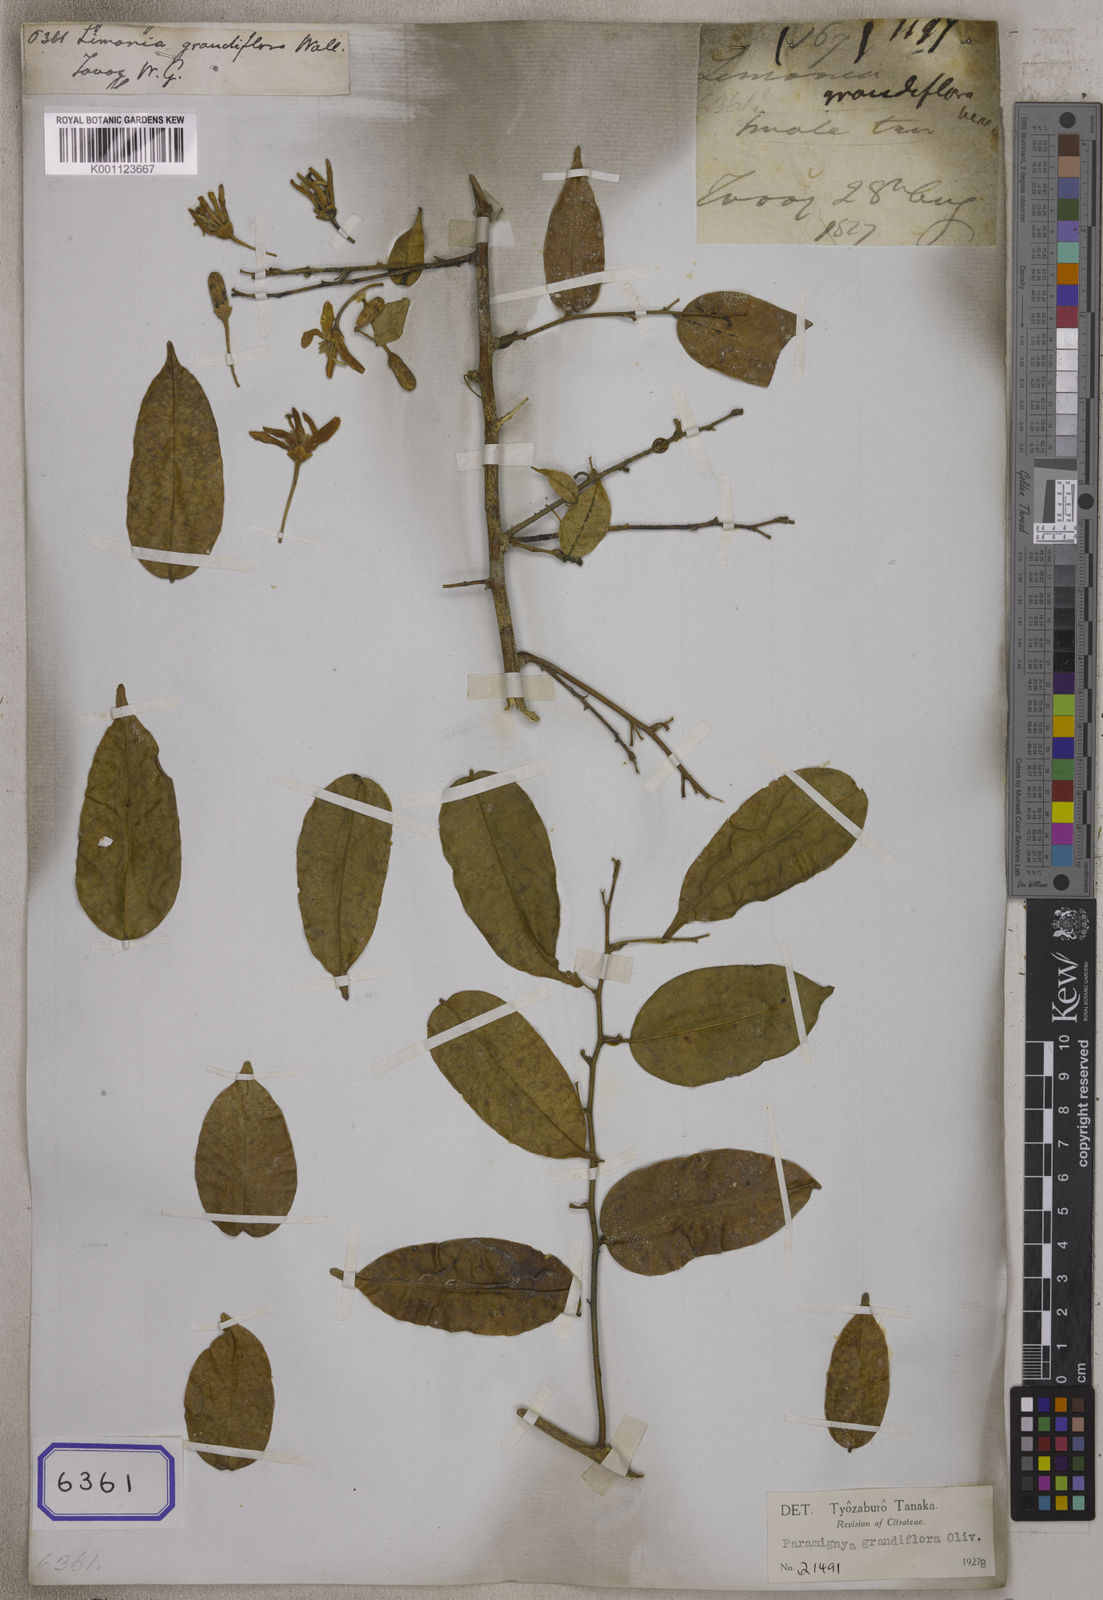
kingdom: Plantae
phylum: Tracheophyta
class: Magnoliopsida
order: Sapindales
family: Rutaceae
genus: Paramignya
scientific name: Paramignya grandiflora
